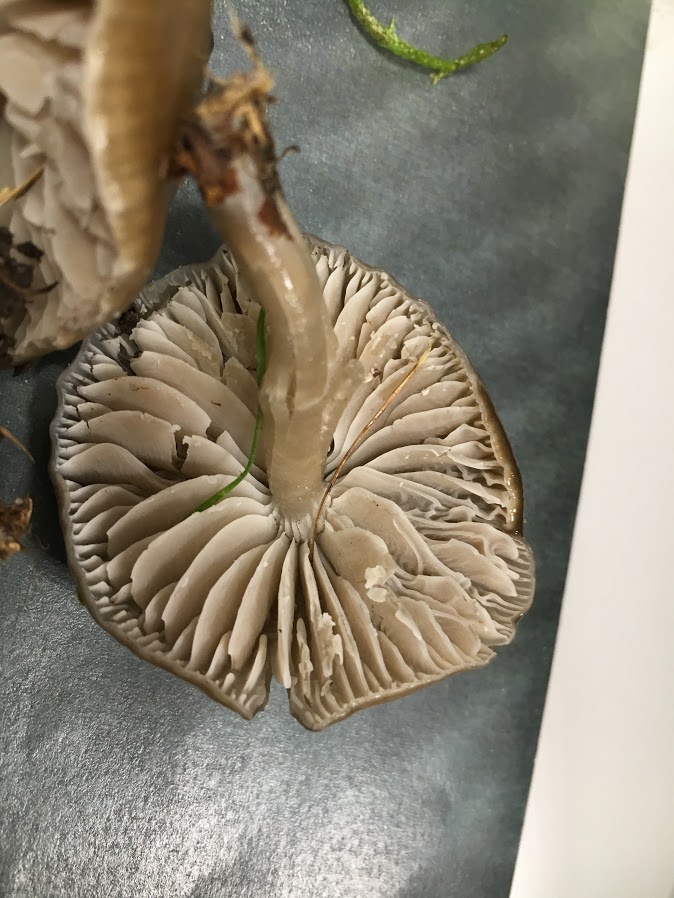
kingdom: Fungi
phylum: Basidiomycota
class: Agaricomycetes
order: Agaricales
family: Hygrophoraceae
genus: Gliophorus
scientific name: Gliophorus irrigatus
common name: slimet vokshat
